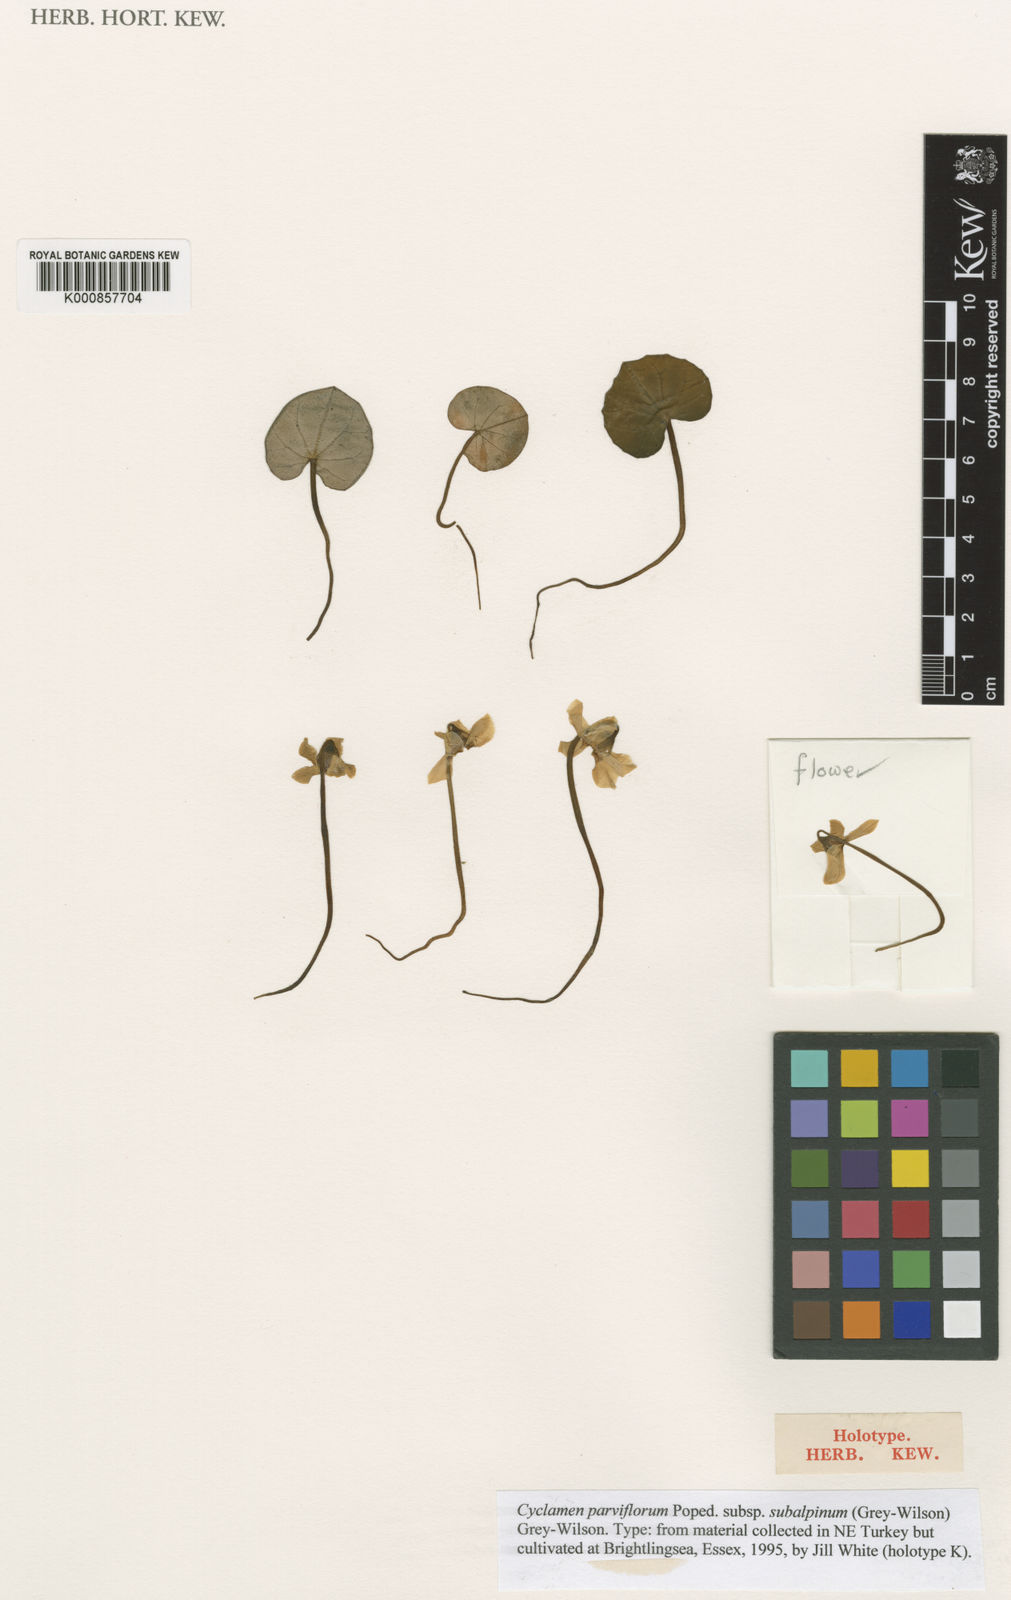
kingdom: Plantae
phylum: Tracheophyta
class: Magnoliopsida
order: Ericales
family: Primulaceae
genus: Cyclamen
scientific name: Cyclamen parviflorum
